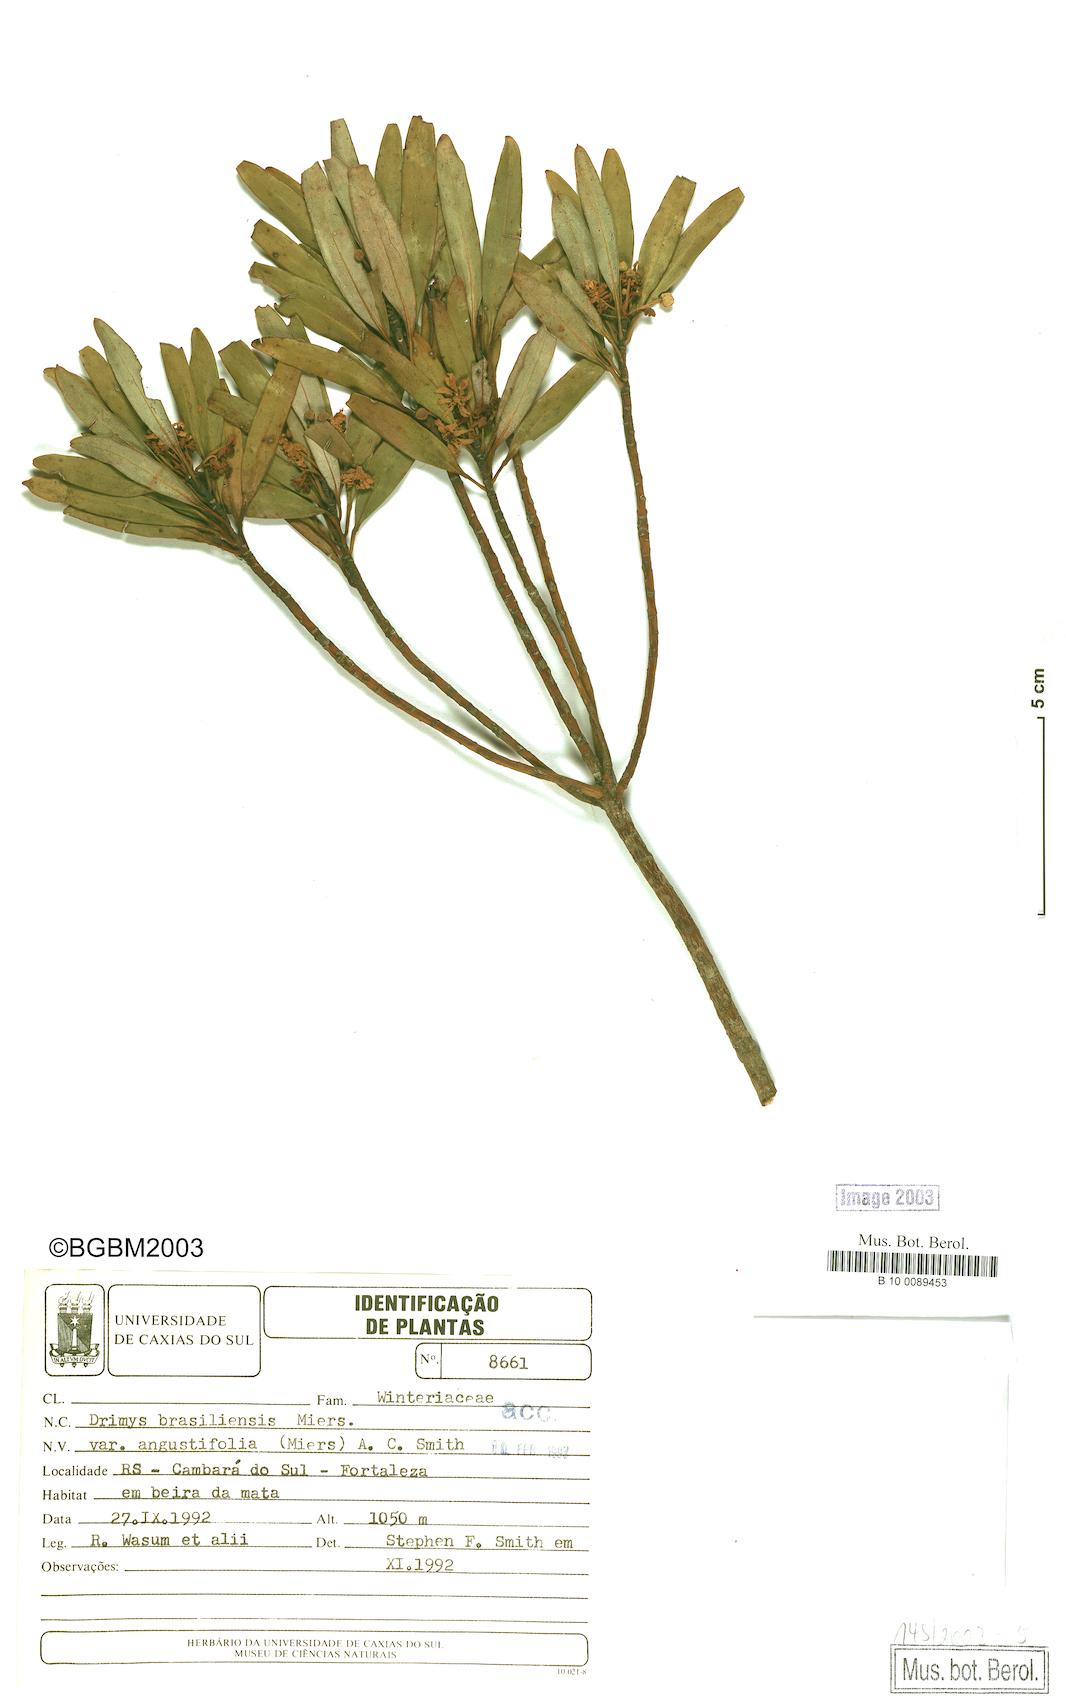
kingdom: Plantae
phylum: Tracheophyta
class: Magnoliopsida
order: Canellales
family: Winteraceae
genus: Drimys
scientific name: Drimys angustifolia
